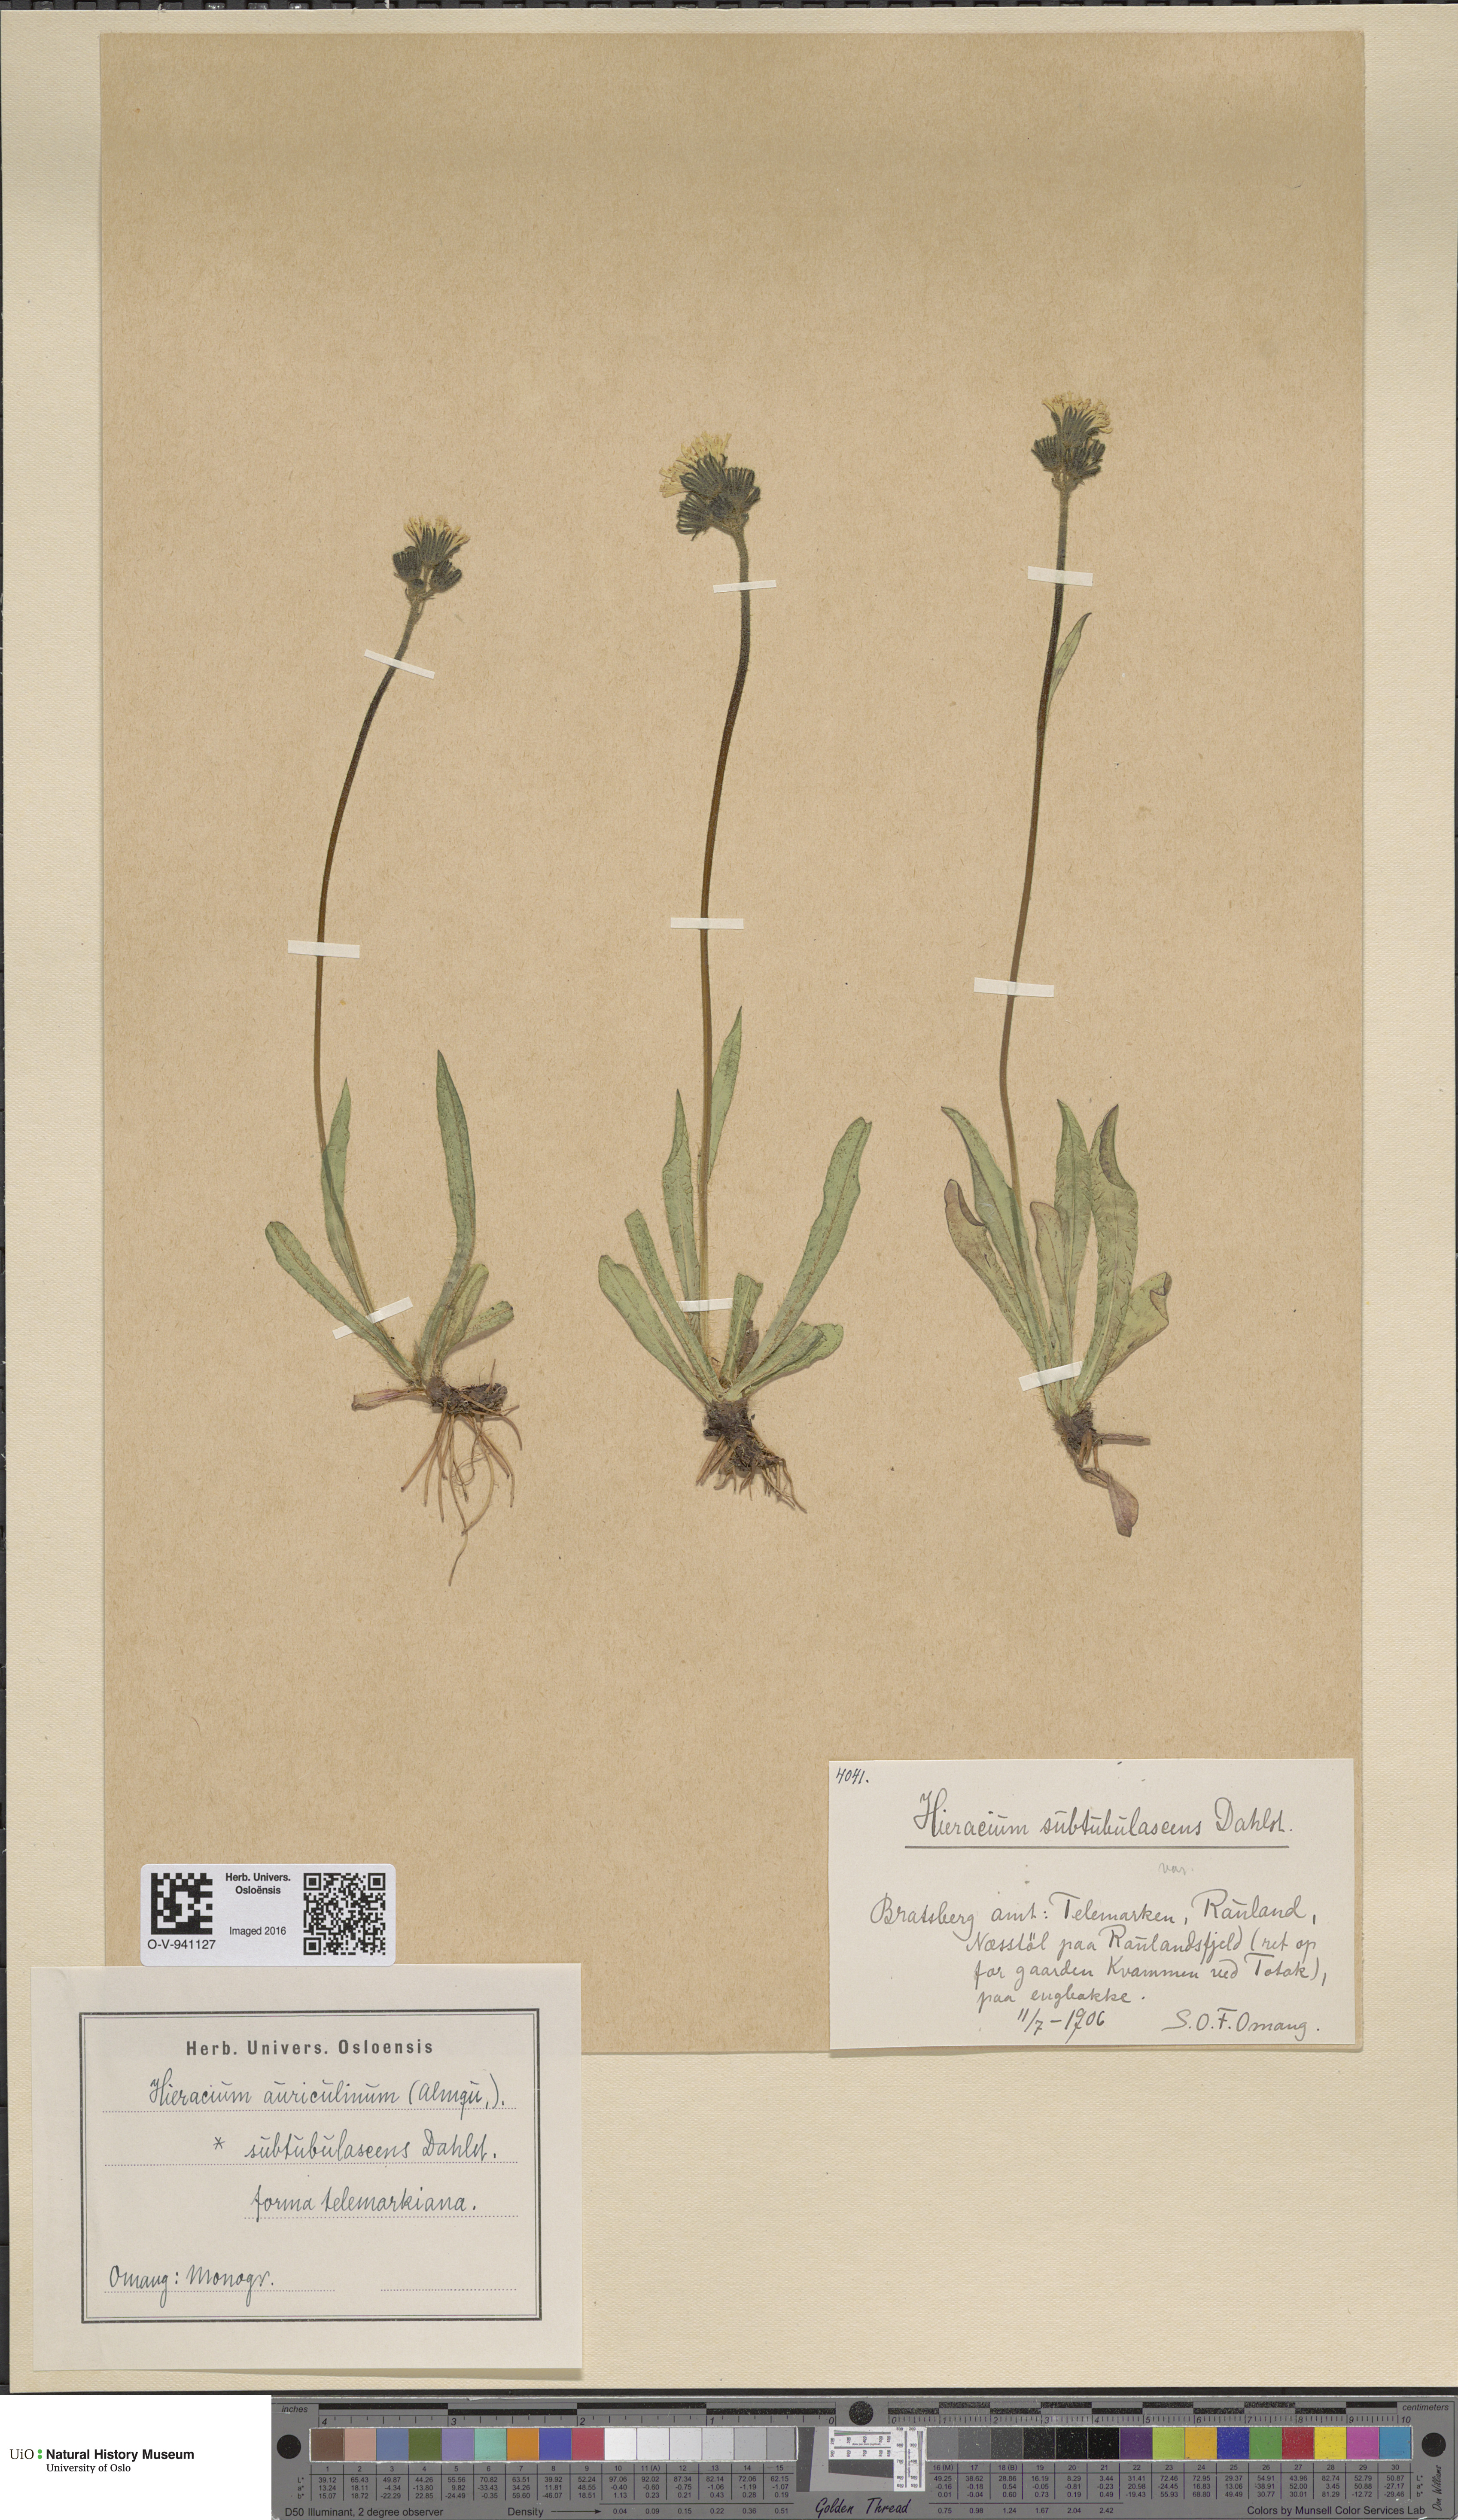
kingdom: Plantae
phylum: Tracheophyta
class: Magnoliopsida
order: Asterales
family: Asteraceae
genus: Pilosella
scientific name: Pilosella dubia
